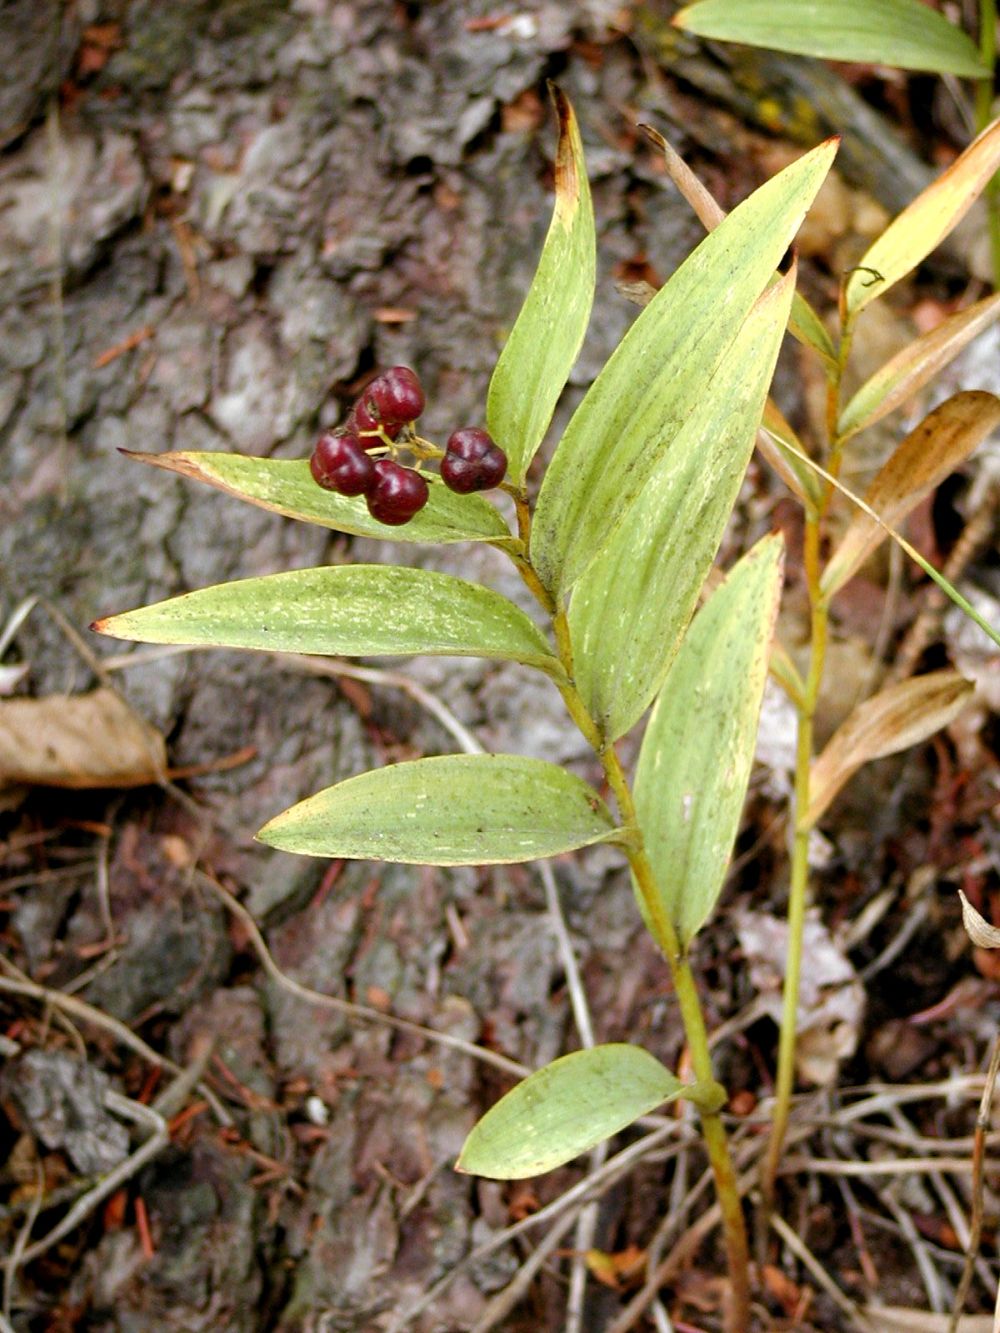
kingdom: Plantae
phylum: Tracheophyta
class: Liliopsida
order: Asparagales
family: Asparagaceae
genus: Maianthemum
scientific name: Maianthemum stellatum
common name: Little false solomon's seal
